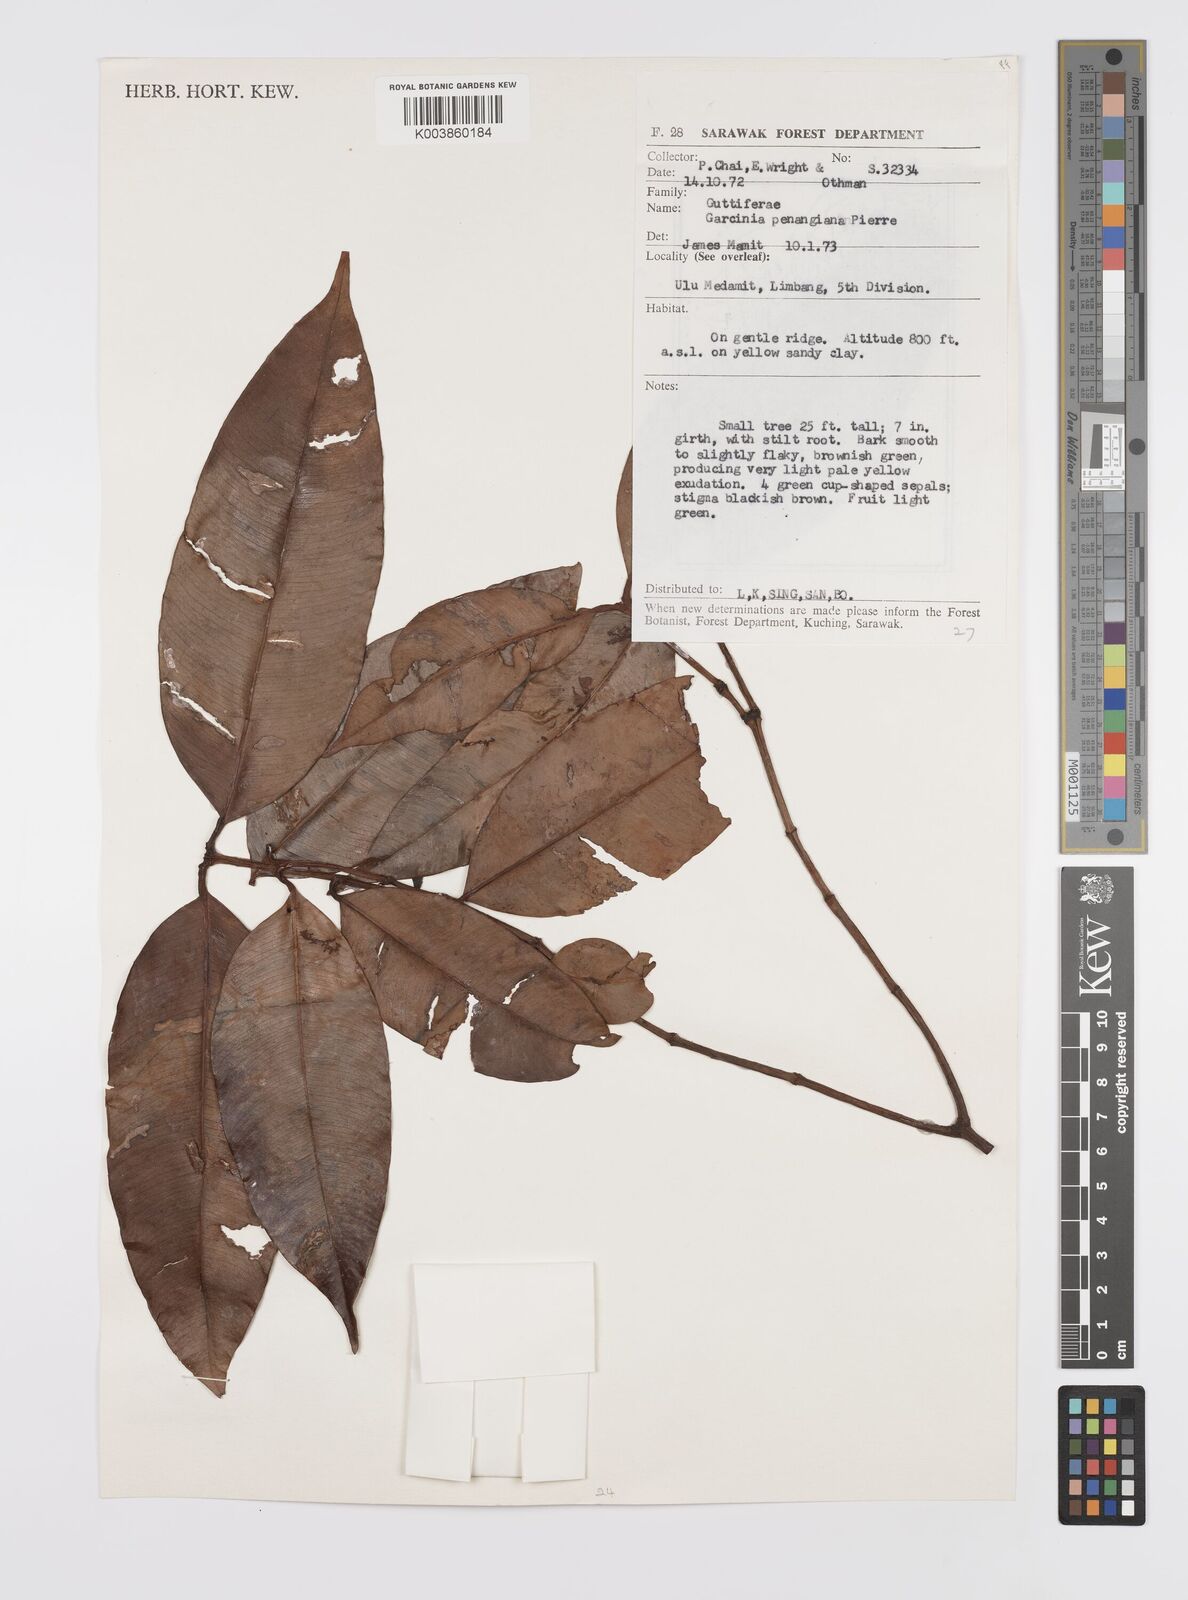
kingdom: Plantae
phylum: Tracheophyta
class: Magnoliopsida
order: Malpighiales
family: Clusiaceae
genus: Garcinia
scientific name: Garcinia penangiana
